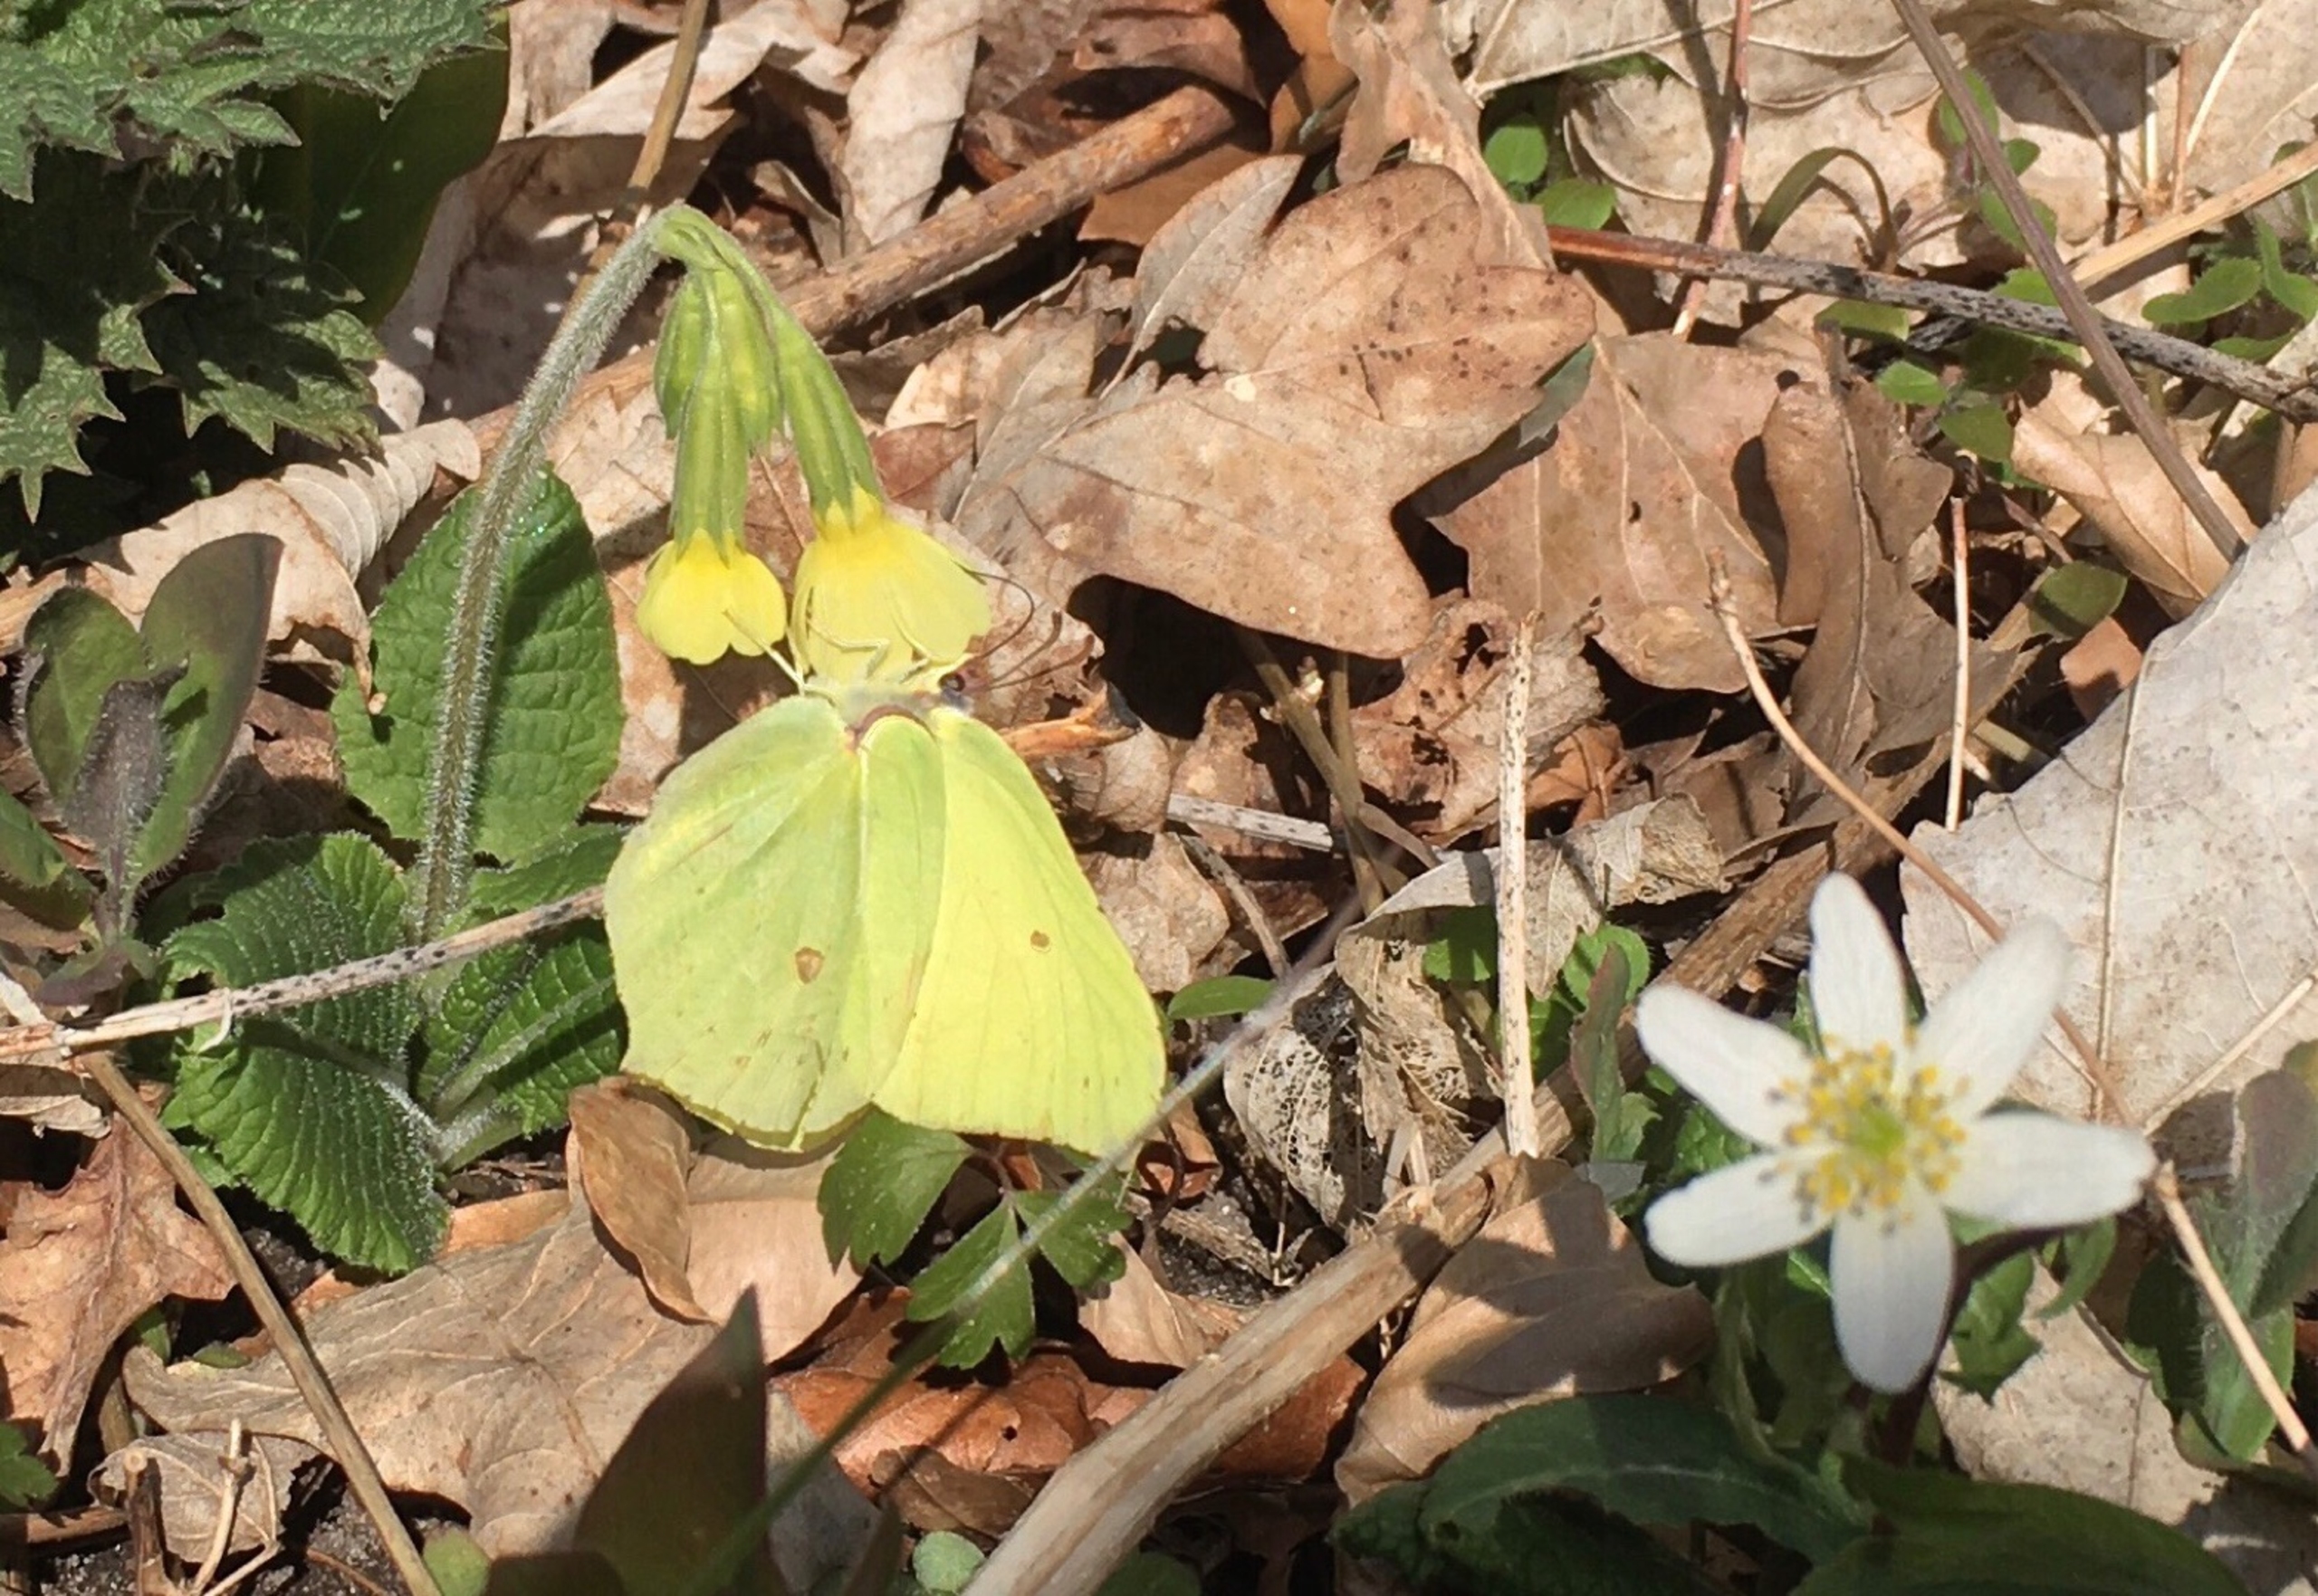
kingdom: Animalia
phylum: Arthropoda
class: Insecta
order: Lepidoptera
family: Pieridae
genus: Gonepteryx
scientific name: Gonepteryx rhamni
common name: Citronsommerfugl
